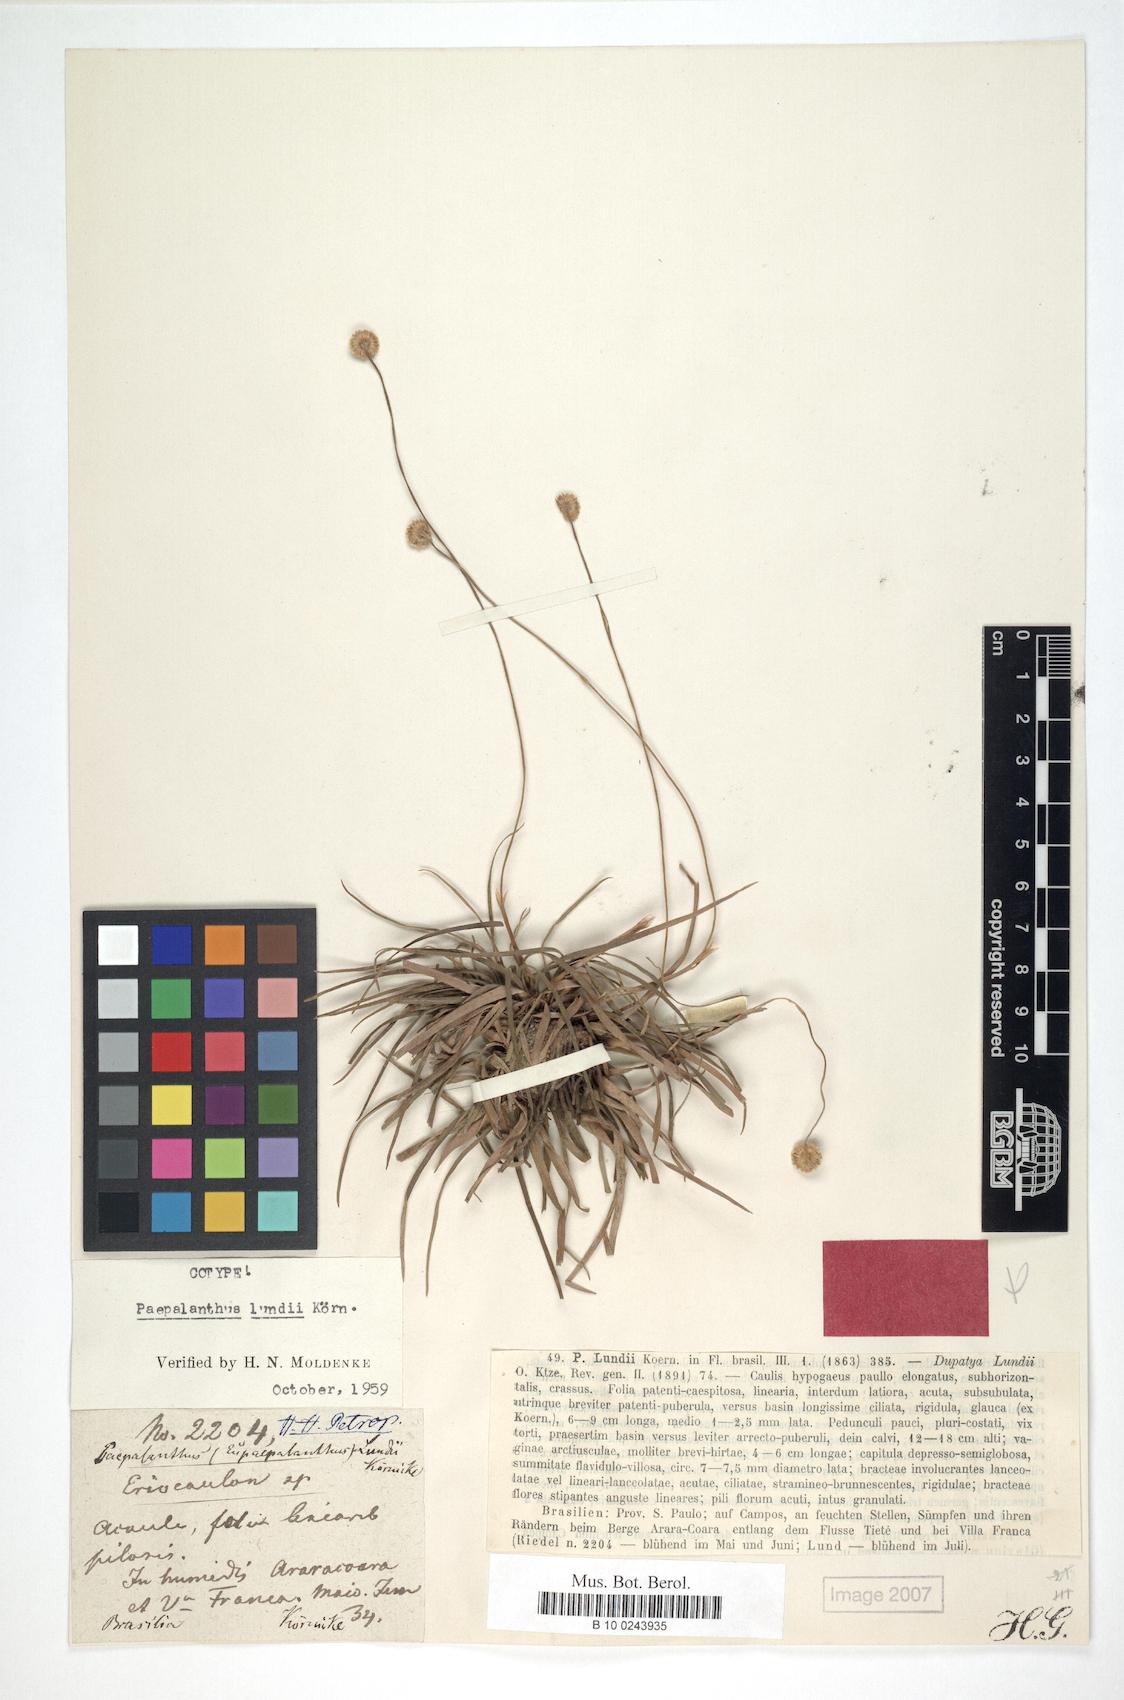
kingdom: Plantae
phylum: Tracheophyta
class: Liliopsida
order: Poales
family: Eriocaulaceae
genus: Paepalanthus
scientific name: Paepalanthus lundii
